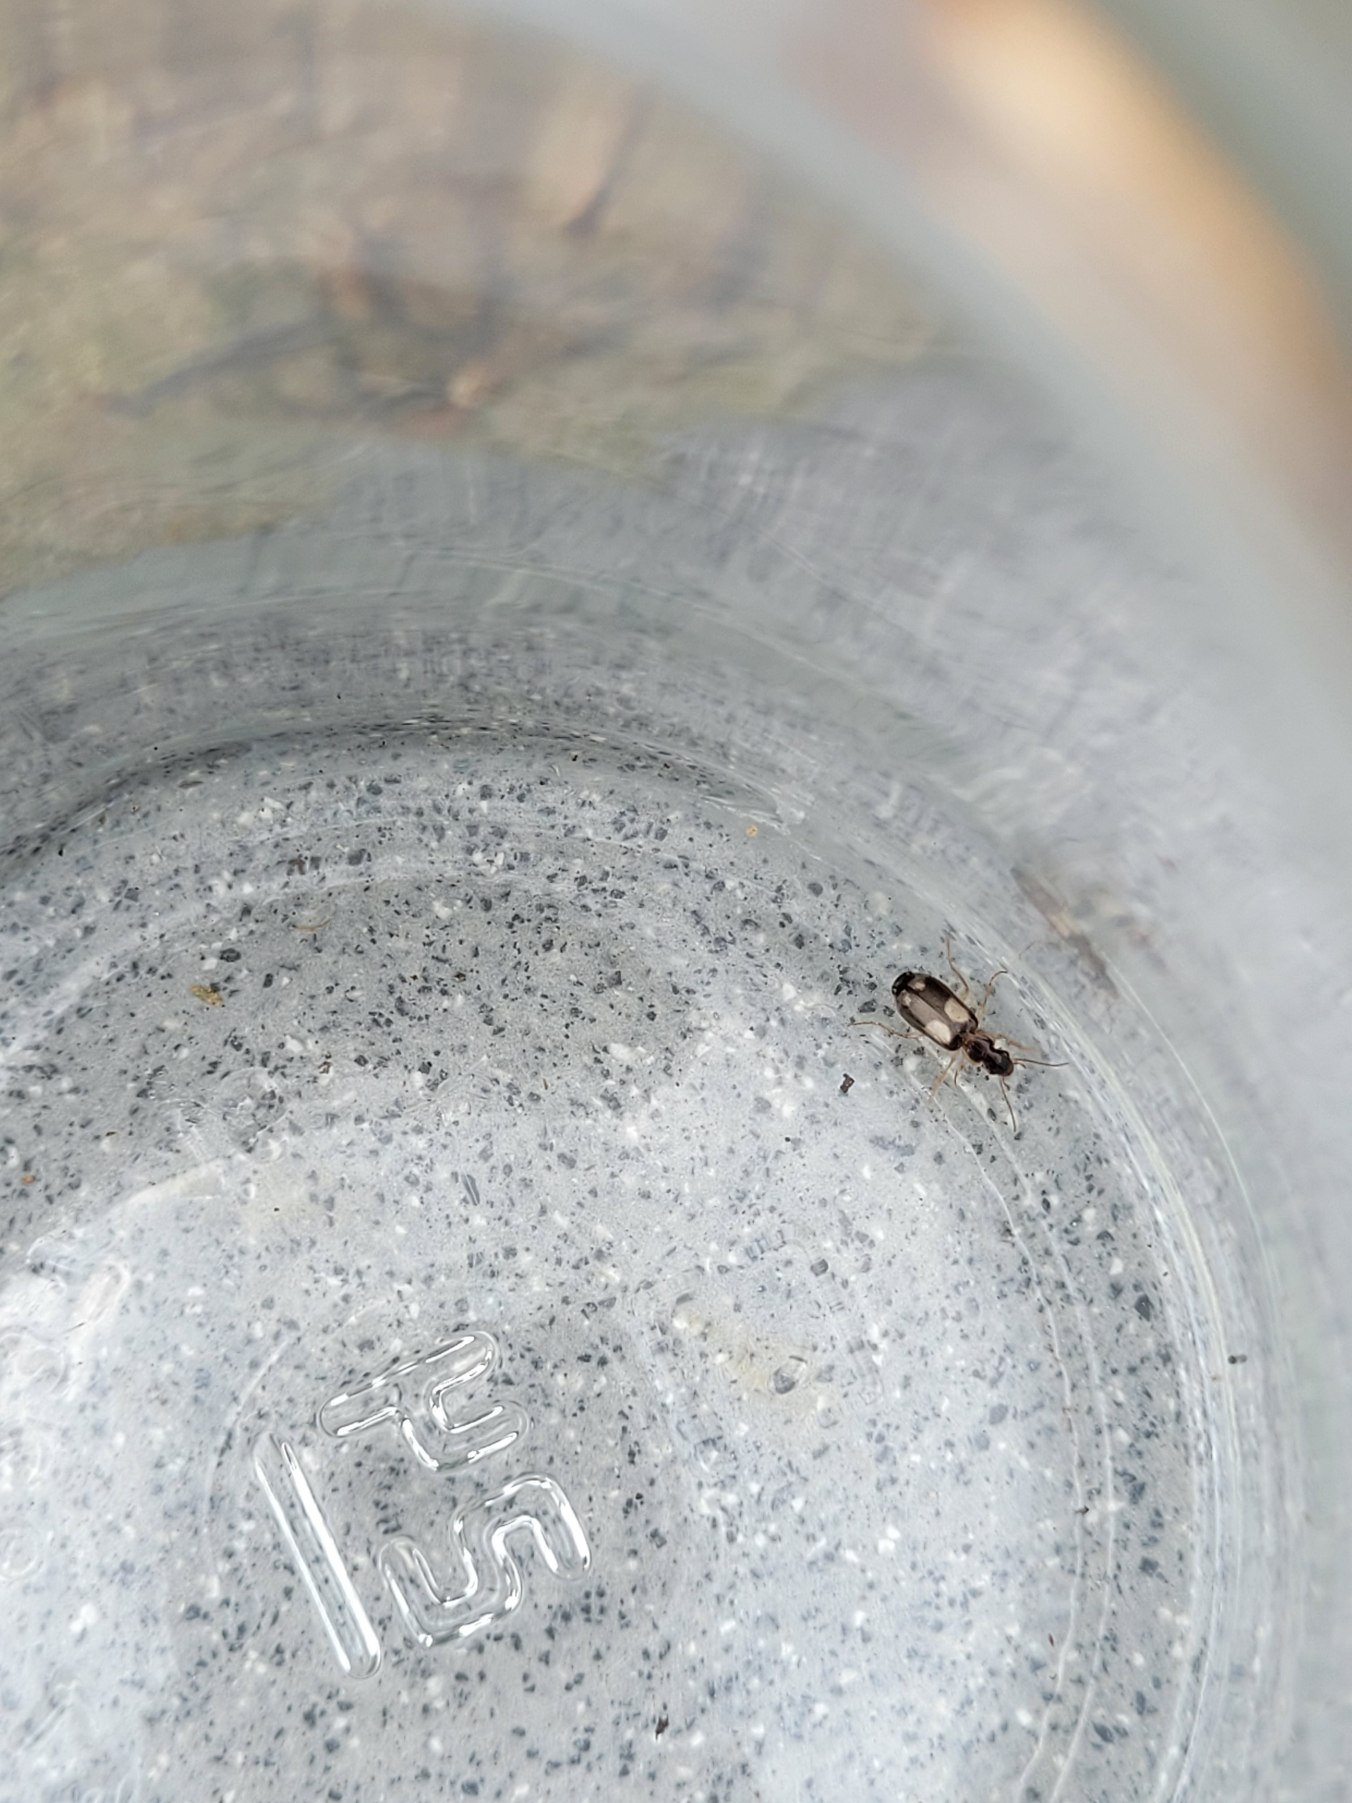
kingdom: Animalia
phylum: Arthropoda
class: Insecta
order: Coleoptera
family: Carabidae
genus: Dromius
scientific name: Dromius quadrimaculatus
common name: Fireplettet barkløber
